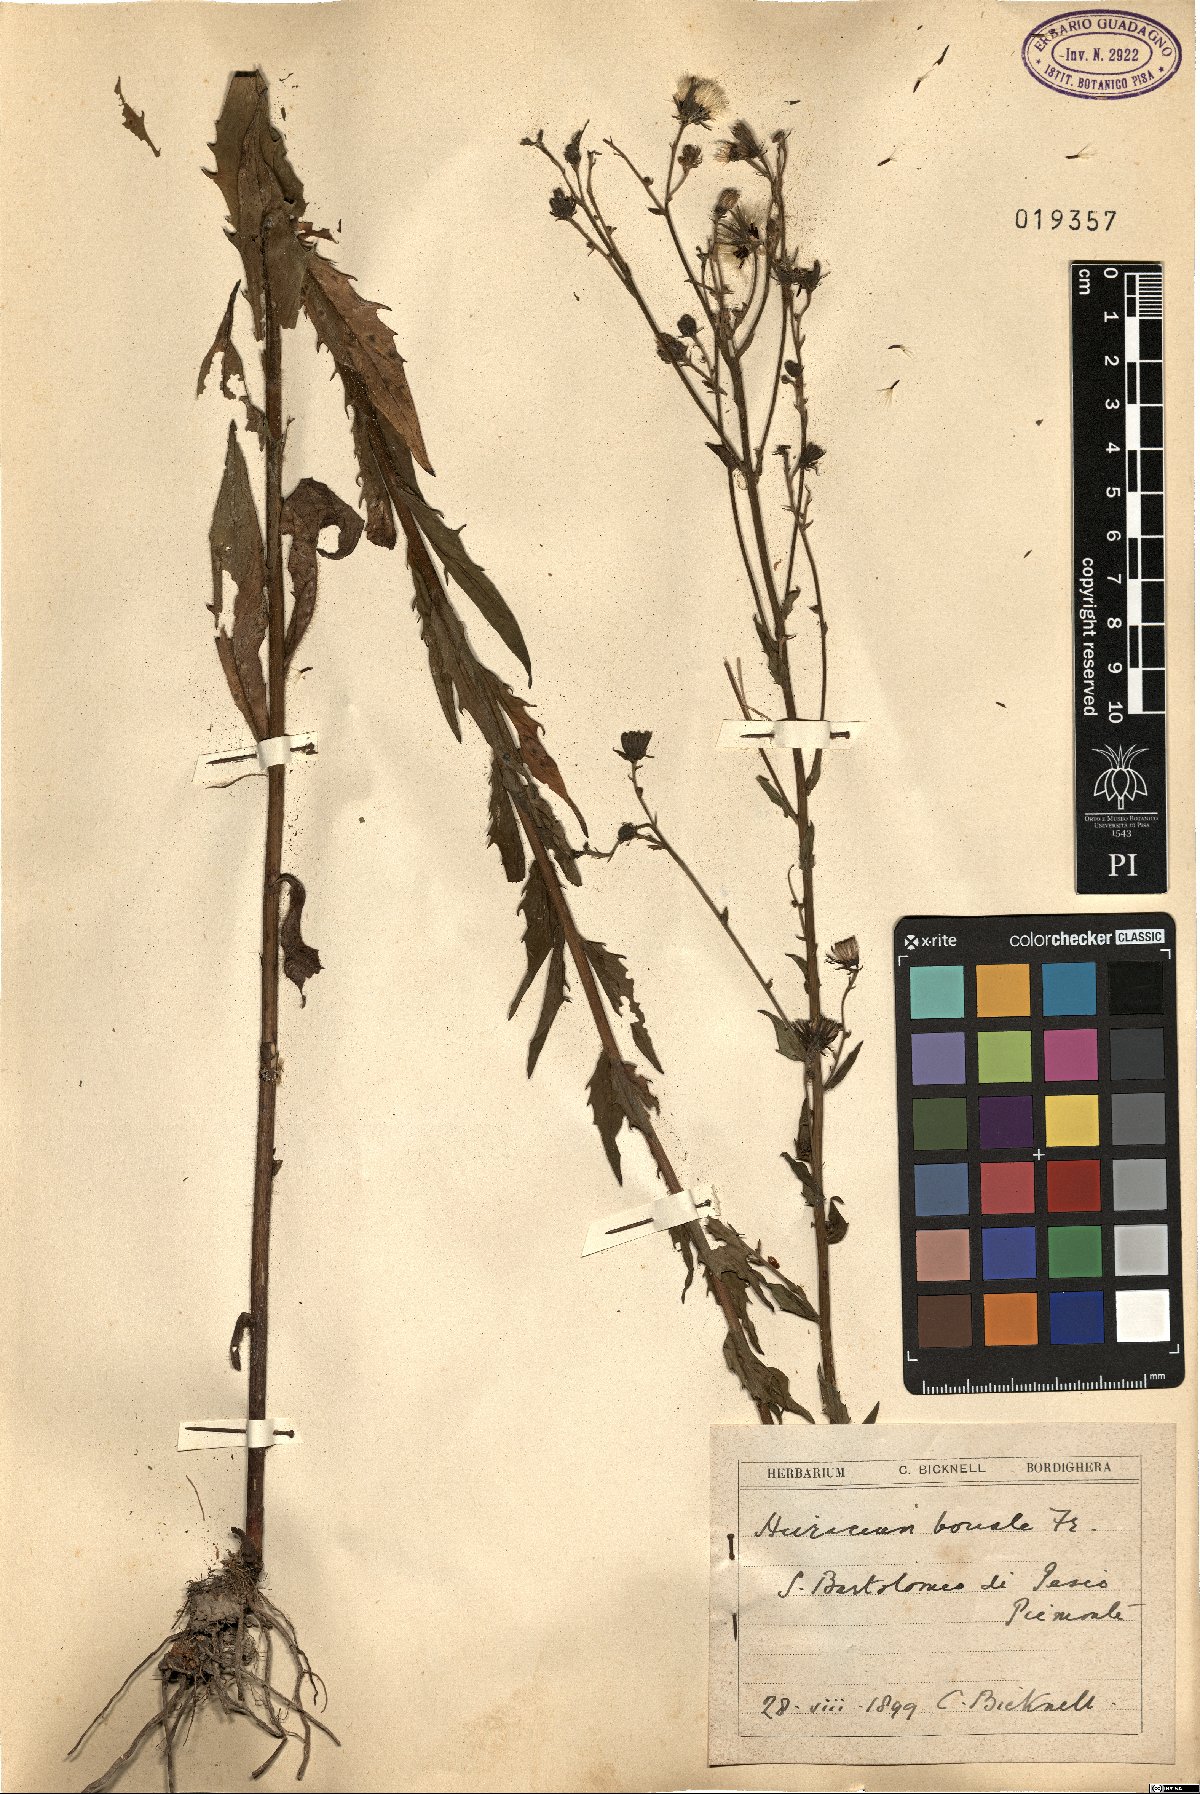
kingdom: Plantae
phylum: Tracheophyta
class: Magnoliopsida
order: Asterales
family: Asteraceae
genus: Hieracium
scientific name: Hieracium sabaudum
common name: New england hawkweed
